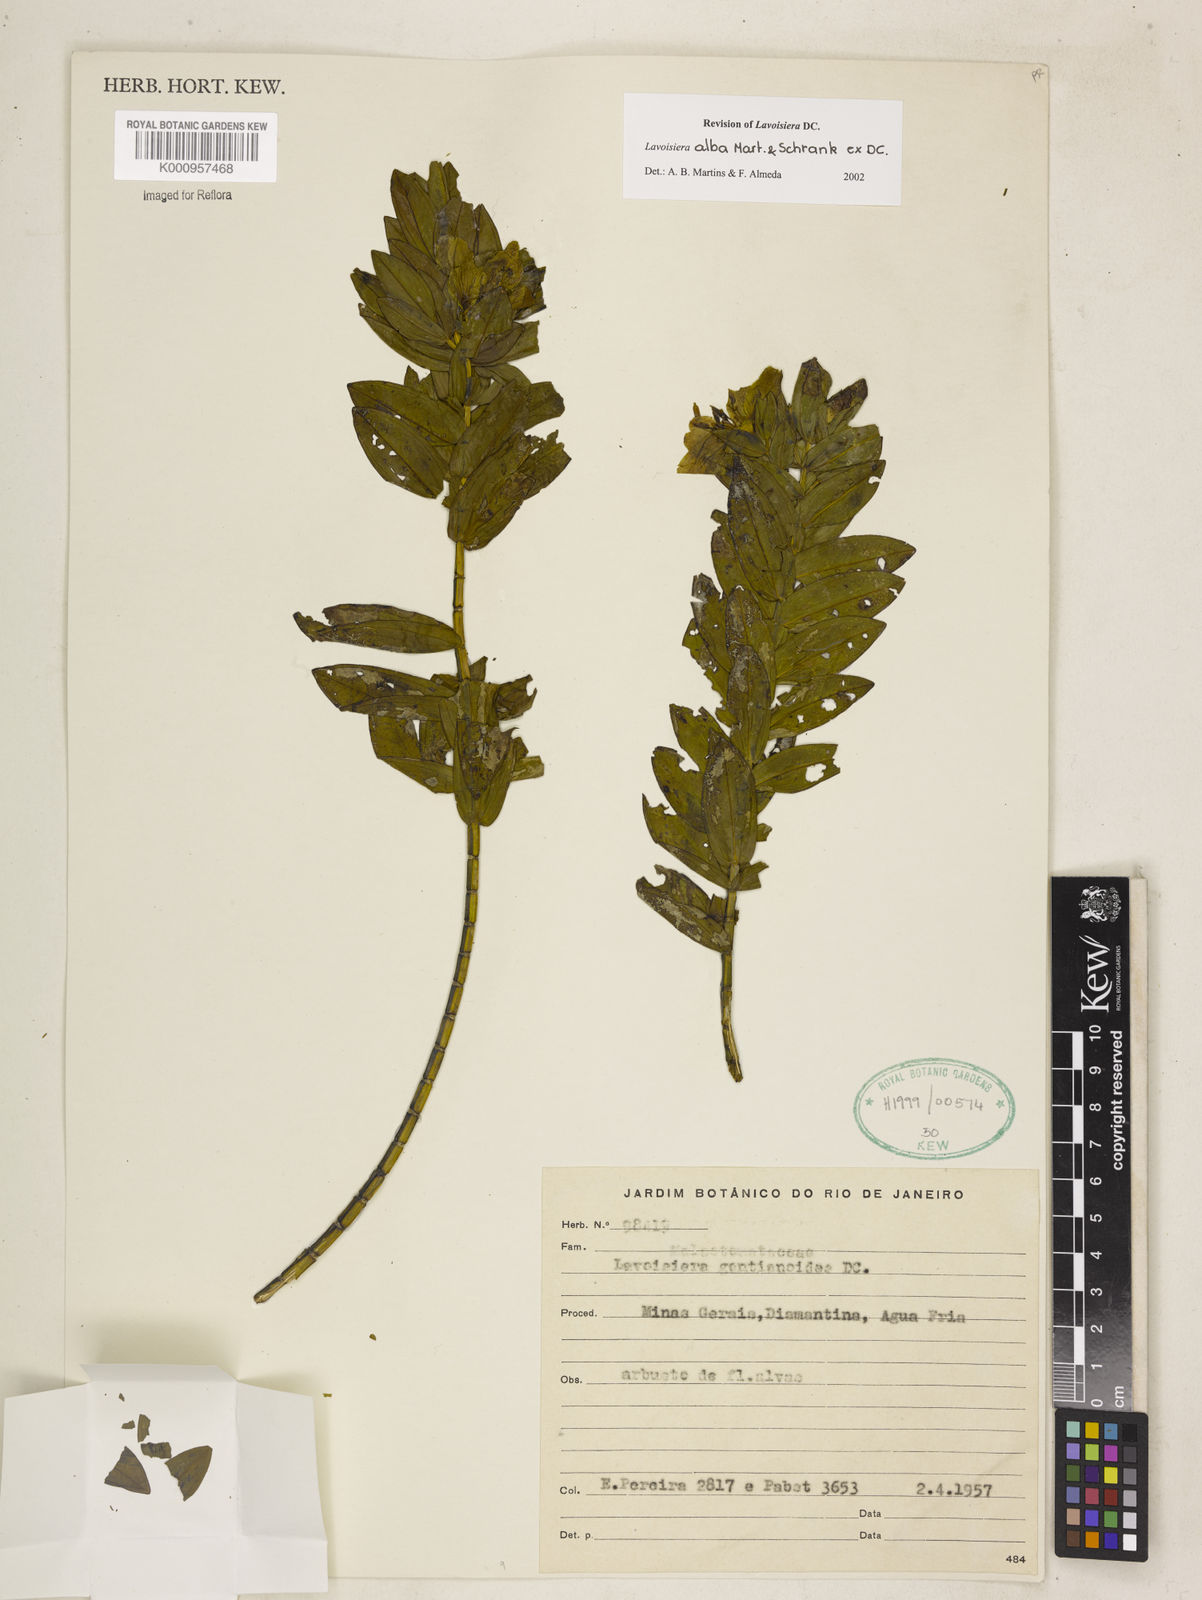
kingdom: Plantae
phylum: Tracheophyta
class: Magnoliopsida
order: Myrtales
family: Melastomataceae
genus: Microlicia
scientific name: Microlicia alba
